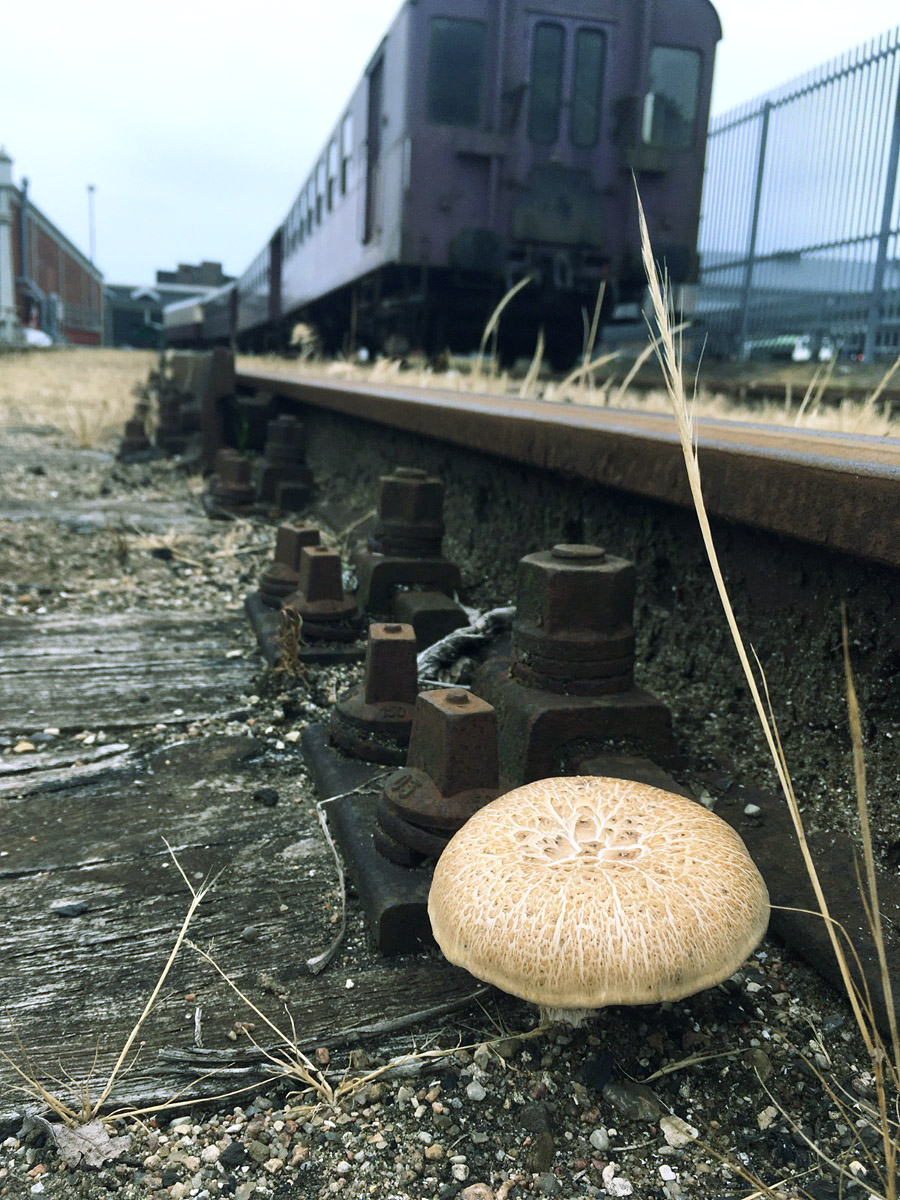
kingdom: Fungi
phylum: Basidiomycota
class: Agaricomycetes
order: Gloeophyllales
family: Gloeophyllaceae
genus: Neolentinus
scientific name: Neolentinus lepideus
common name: skællet sejhat
